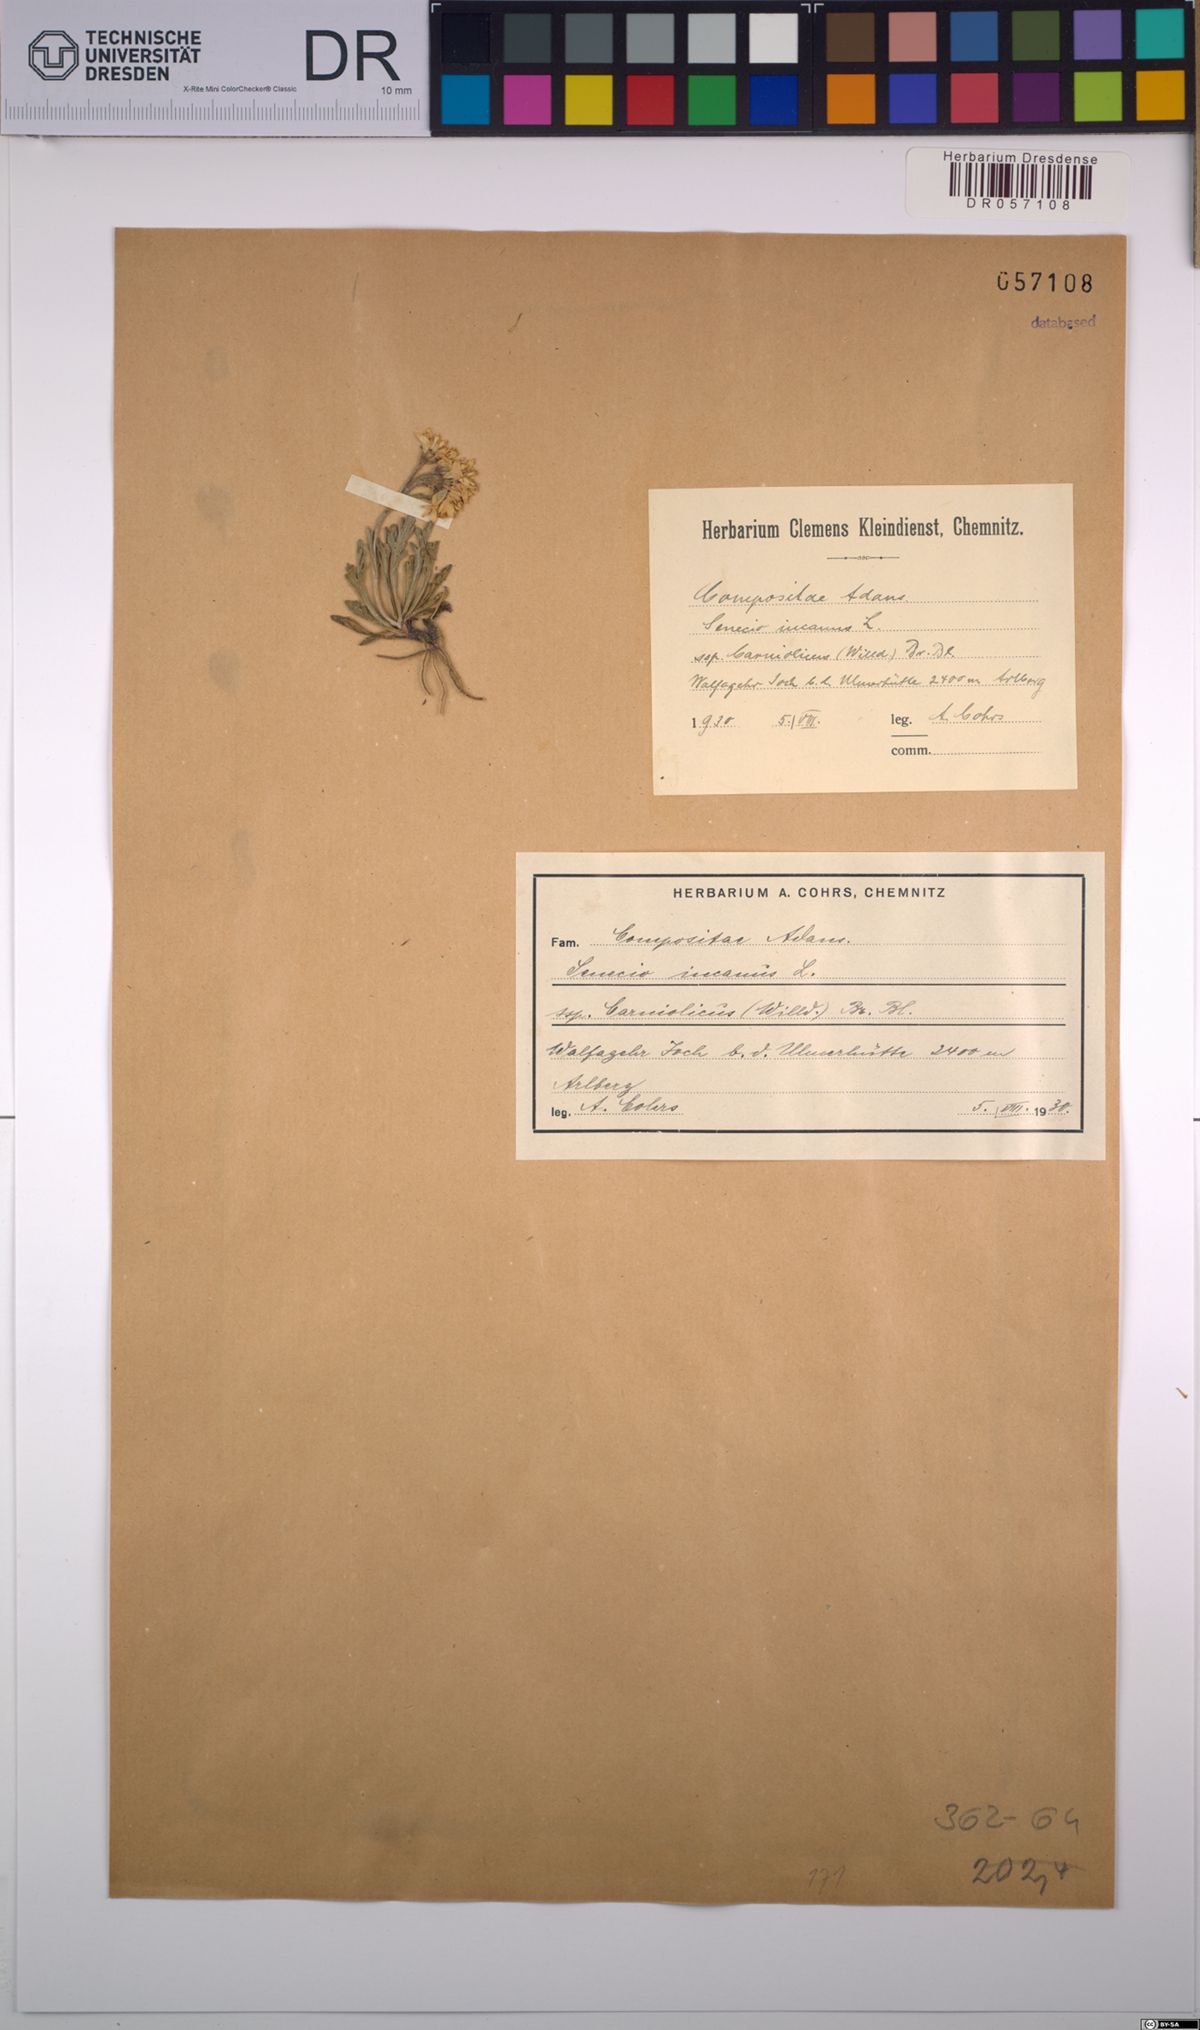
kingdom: Plantae
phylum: Tracheophyta
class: Magnoliopsida
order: Asterales
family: Asteraceae
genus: Jacobaea
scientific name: Jacobaea carniolica
